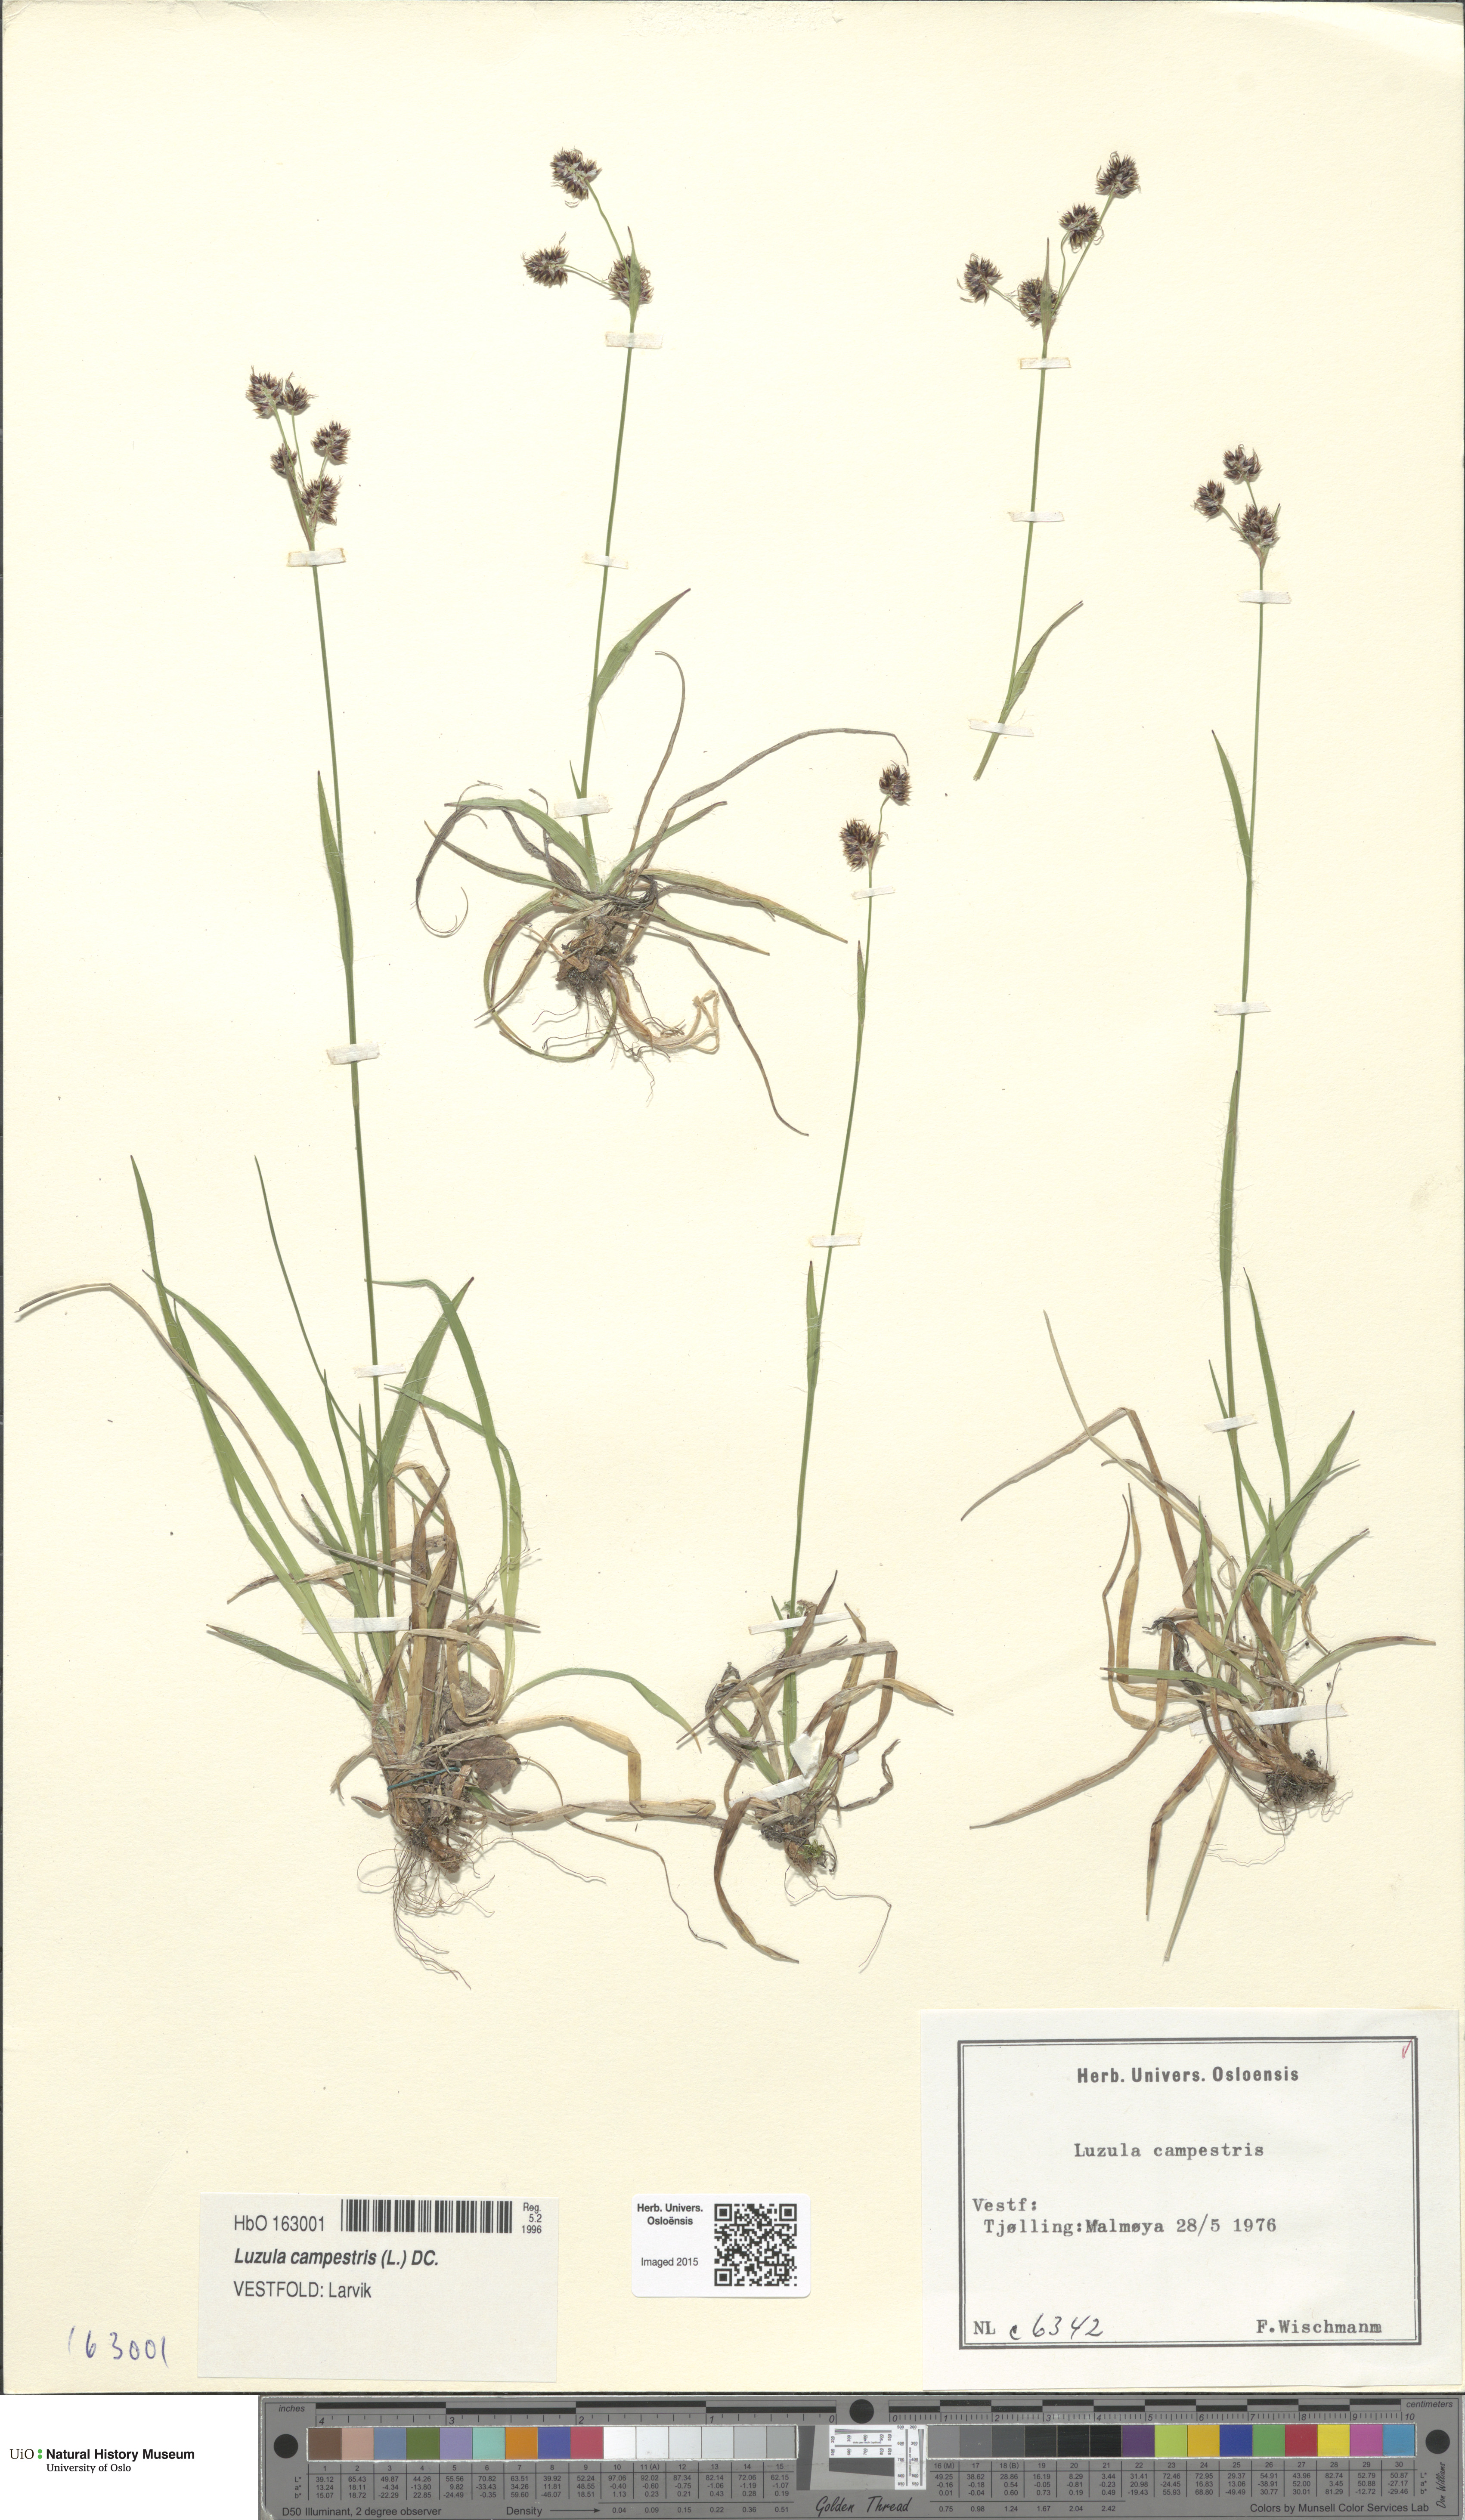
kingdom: Plantae
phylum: Tracheophyta
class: Liliopsida
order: Poales
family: Juncaceae
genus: Luzula
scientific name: Luzula campestris
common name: Field wood-rush
